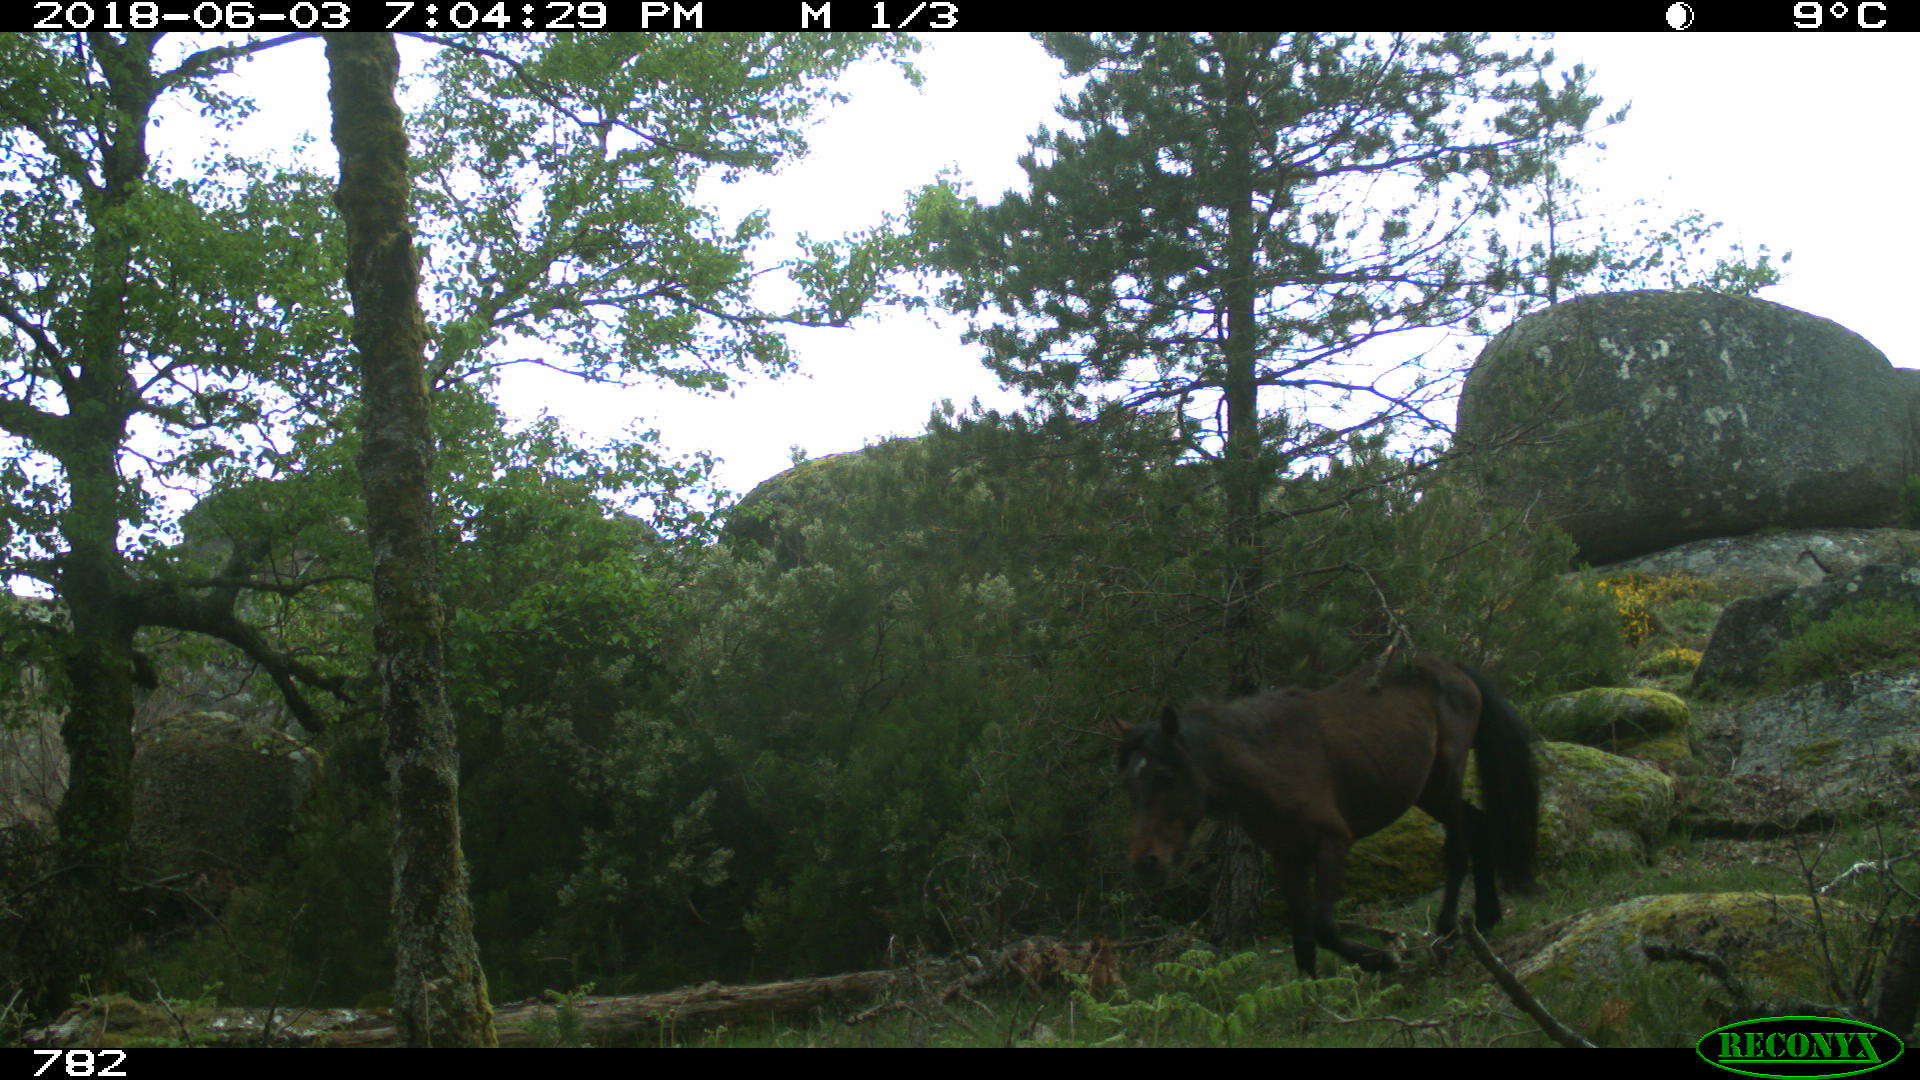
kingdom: Animalia
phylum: Chordata
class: Mammalia
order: Perissodactyla
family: Equidae
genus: Equus
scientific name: Equus caballus
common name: Horse
